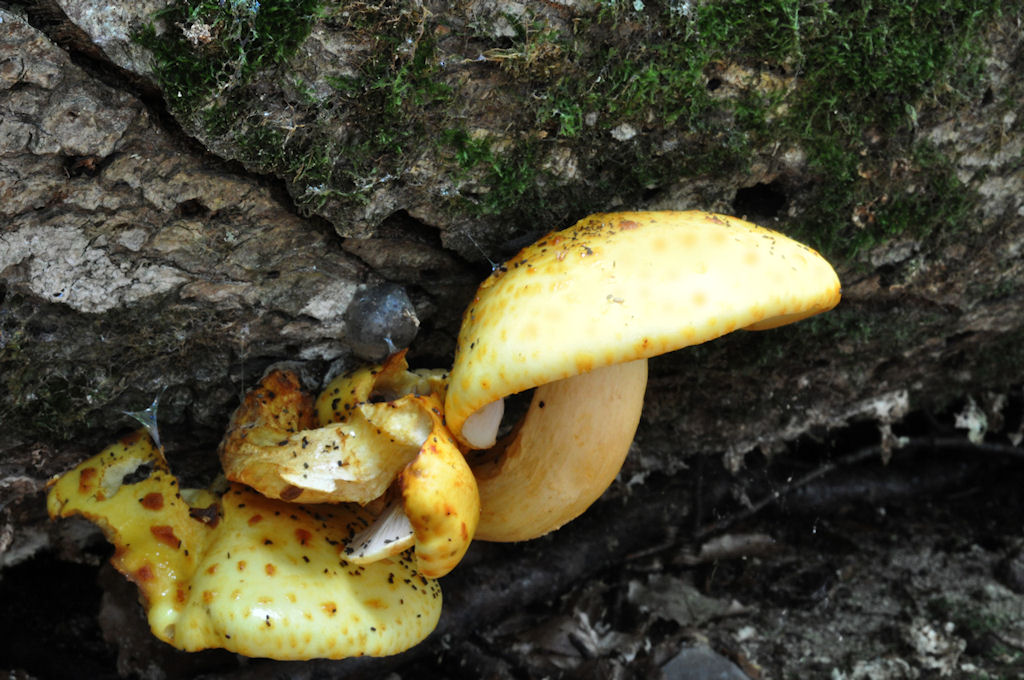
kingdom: Fungi
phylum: Basidiomycota
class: Agaricomycetes
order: Agaricales
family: Strophariaceae
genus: Pholiota
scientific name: Pholiota adiposa
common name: højtsiddende skælhat
